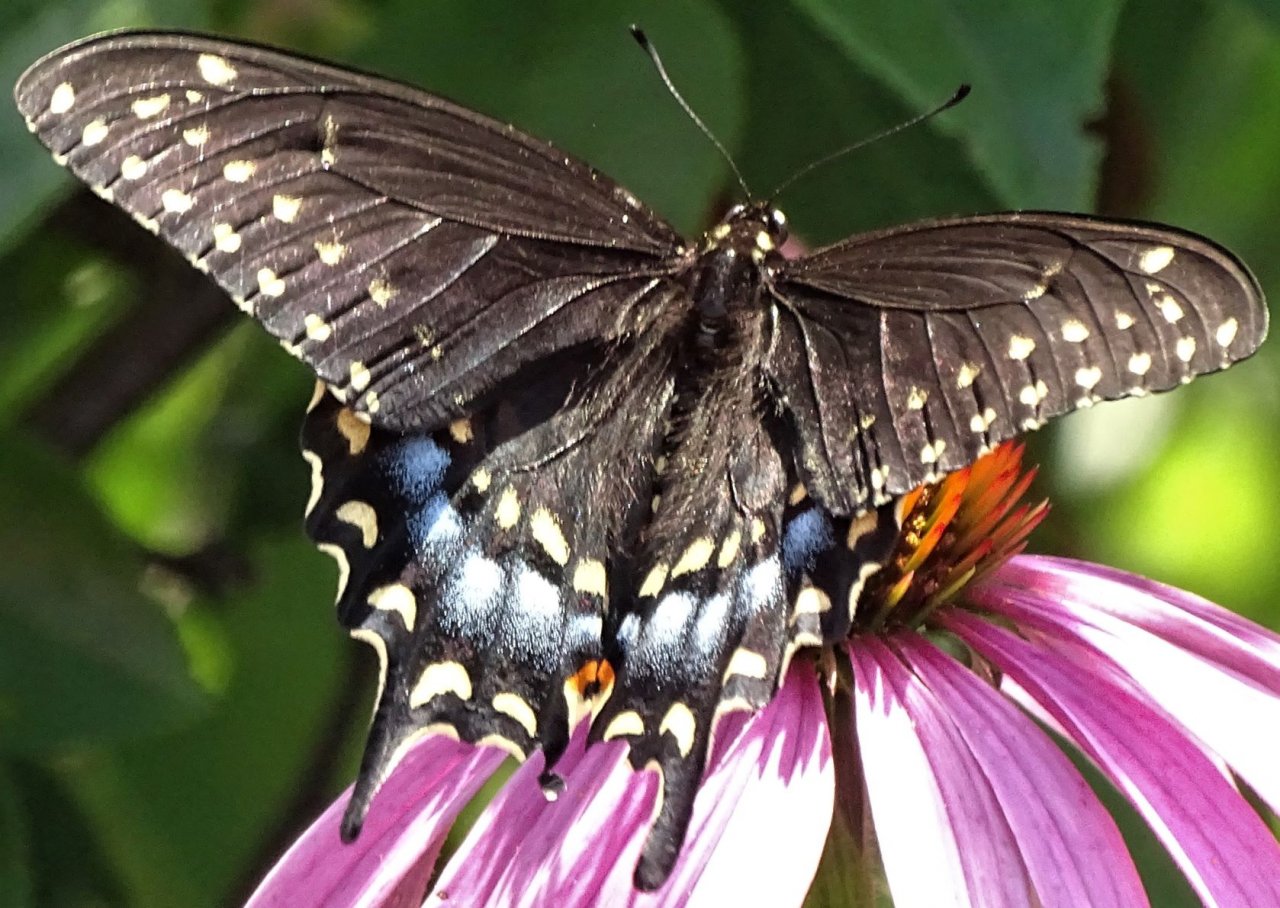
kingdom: Animalia
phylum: Arthropoda
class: Insecta
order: Lepidoptera
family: Papilionidae
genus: Papilio
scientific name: Papilio polyxenes
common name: Black Swallowtail
